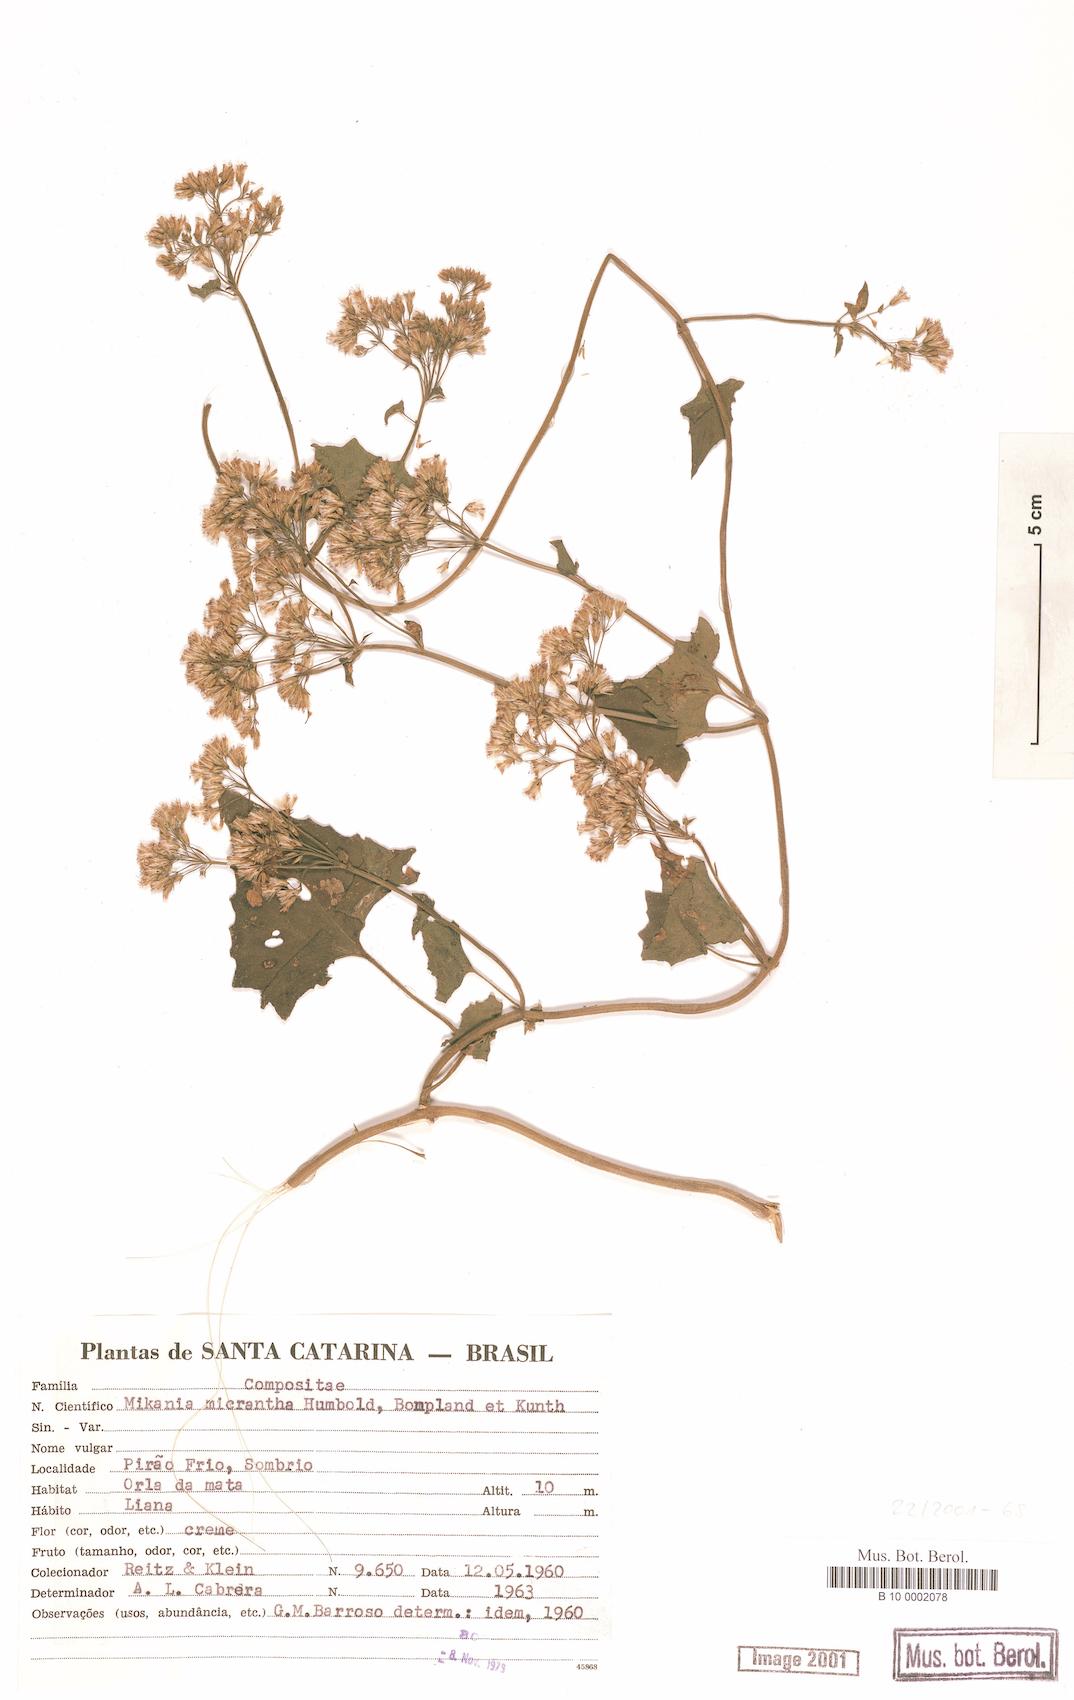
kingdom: Plantae
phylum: Tracheophyta
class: Magnoliopsida
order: Asterales
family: Asteraceae
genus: Mikania
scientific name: Mikania micrantha
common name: Mile-a-minute
